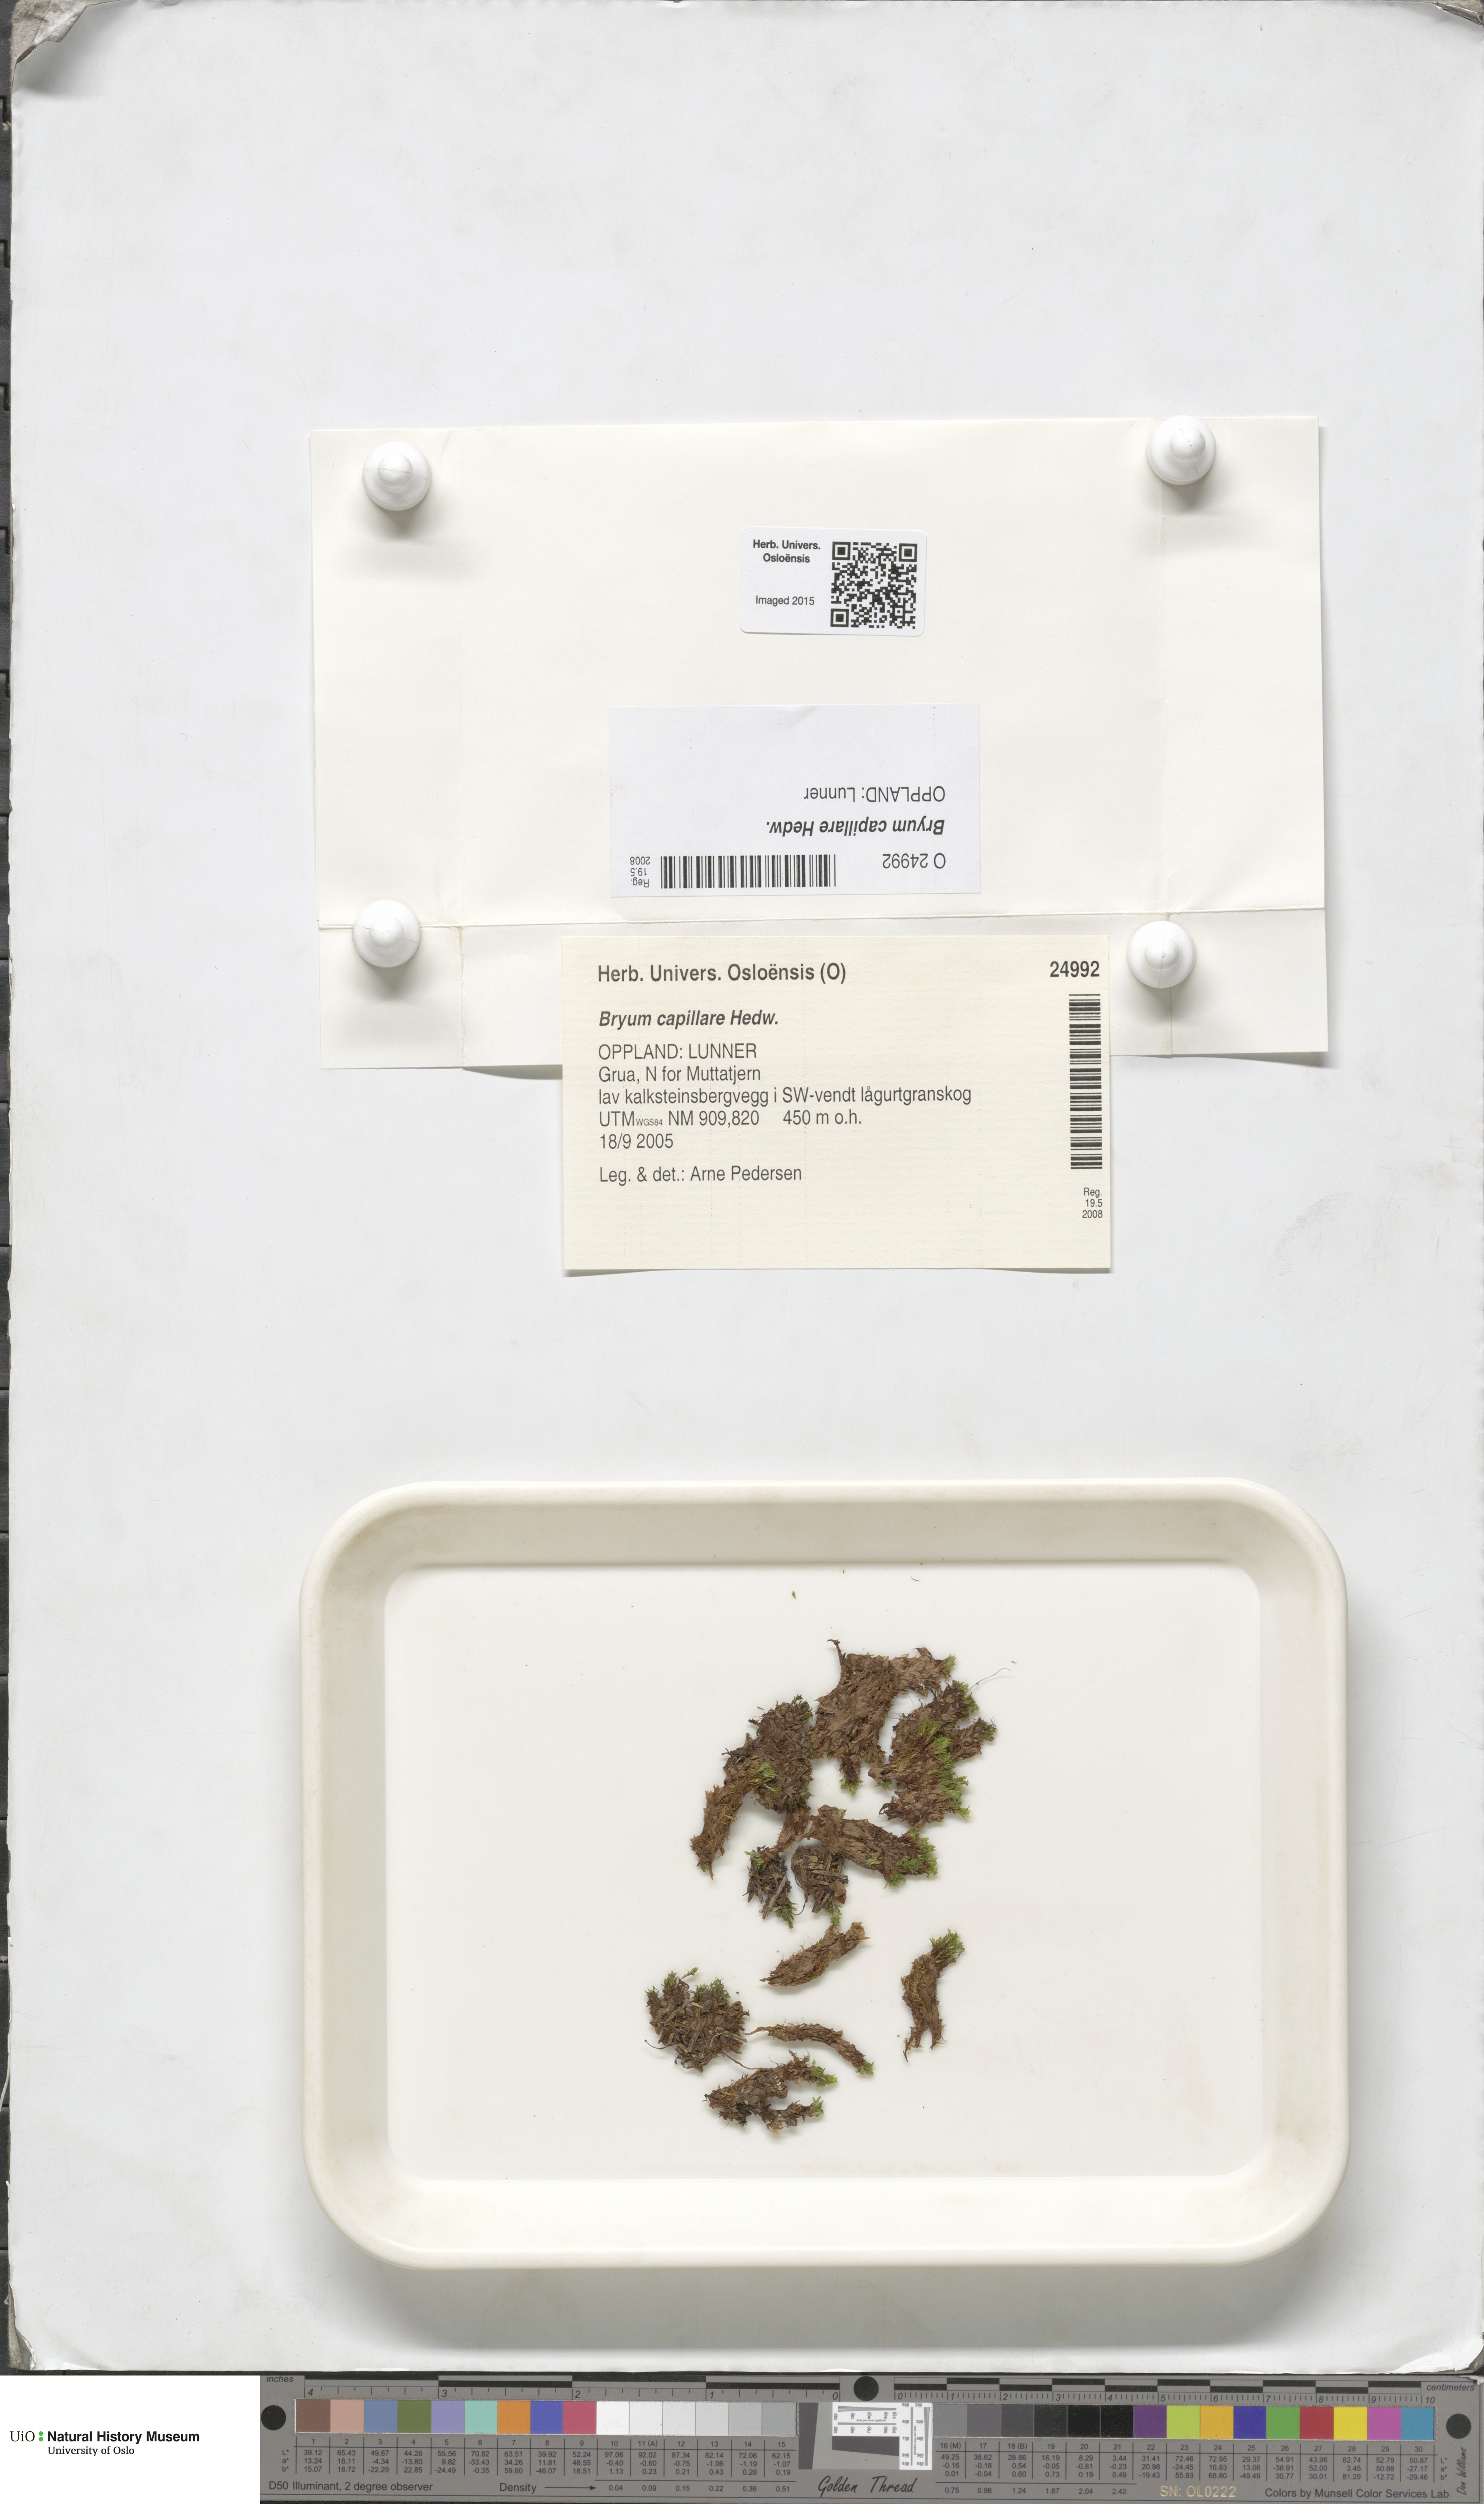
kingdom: Plantae
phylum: Bryophyta
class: Bryopsida
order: Bryales
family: Bryaceae
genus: Rosulabryum
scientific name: Rosulabryum capillare
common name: Capillary thread-moss
